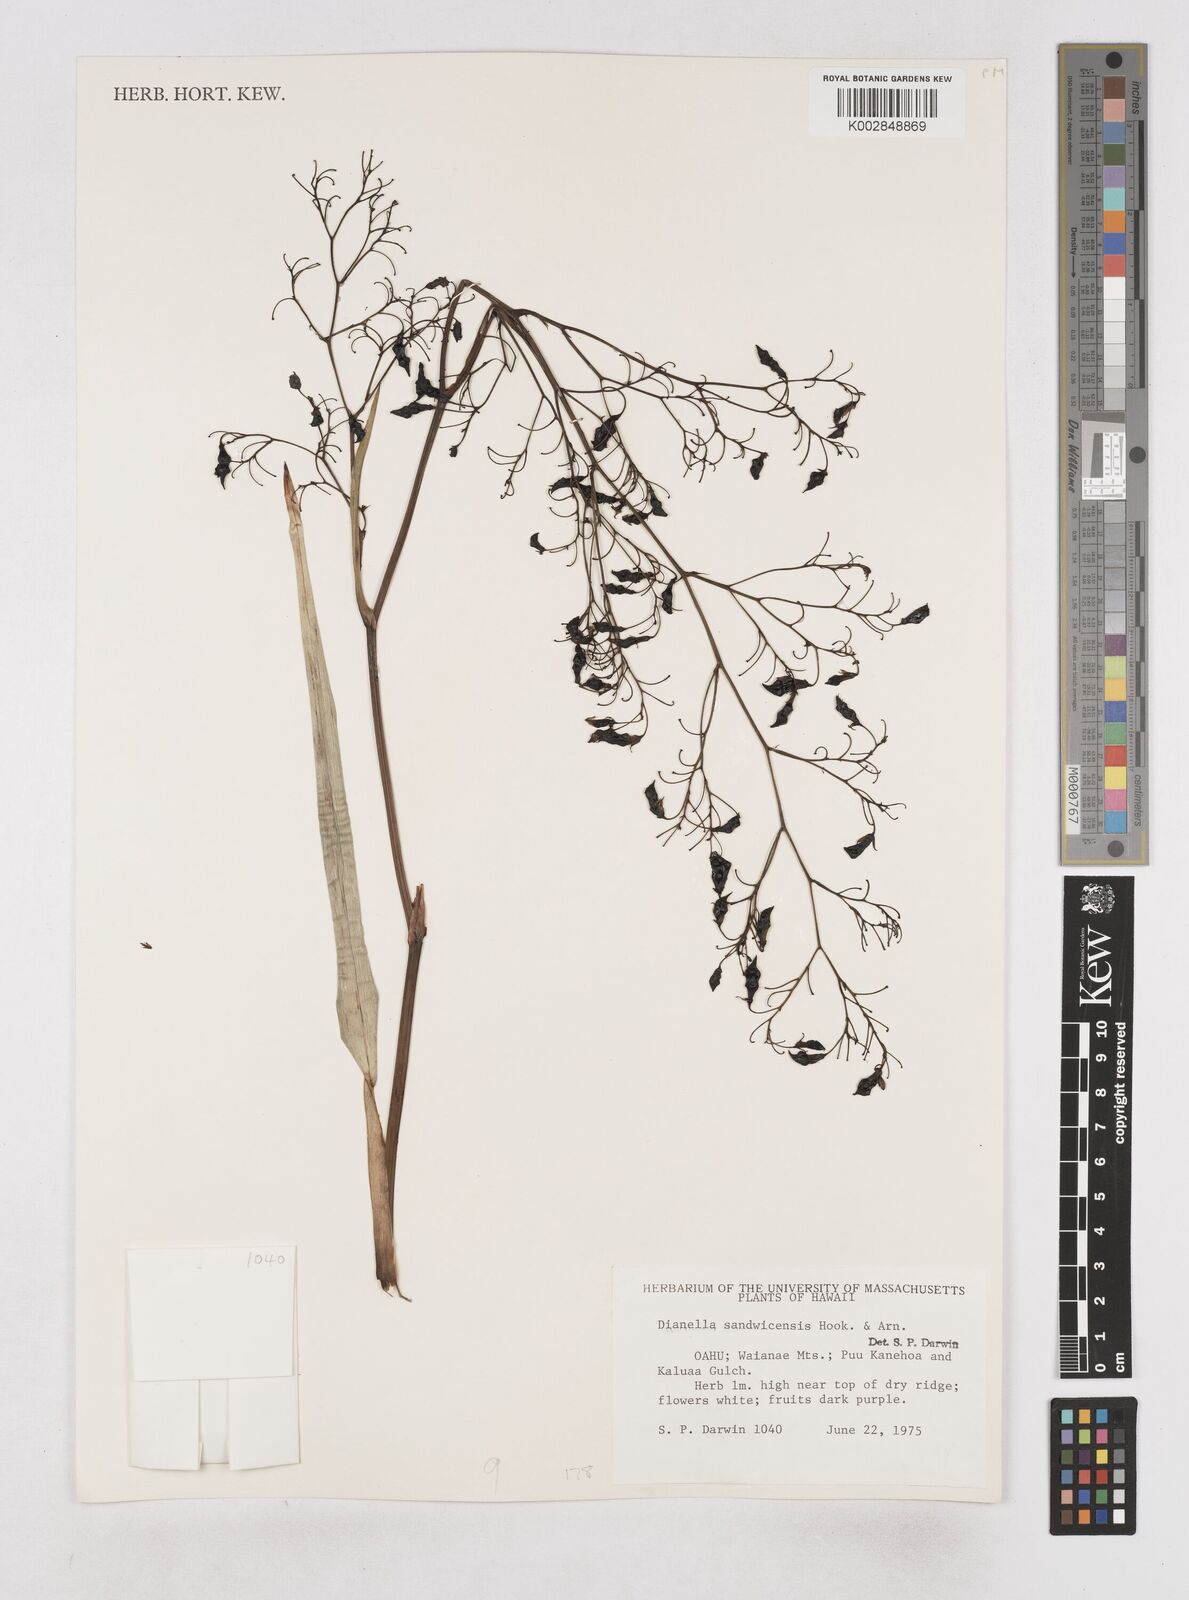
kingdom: Plantae
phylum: Tracheophyta
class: Liliopsida
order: Asparagales
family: Asphodelaceae
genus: Dianella
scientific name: Dianella sandwicensis
